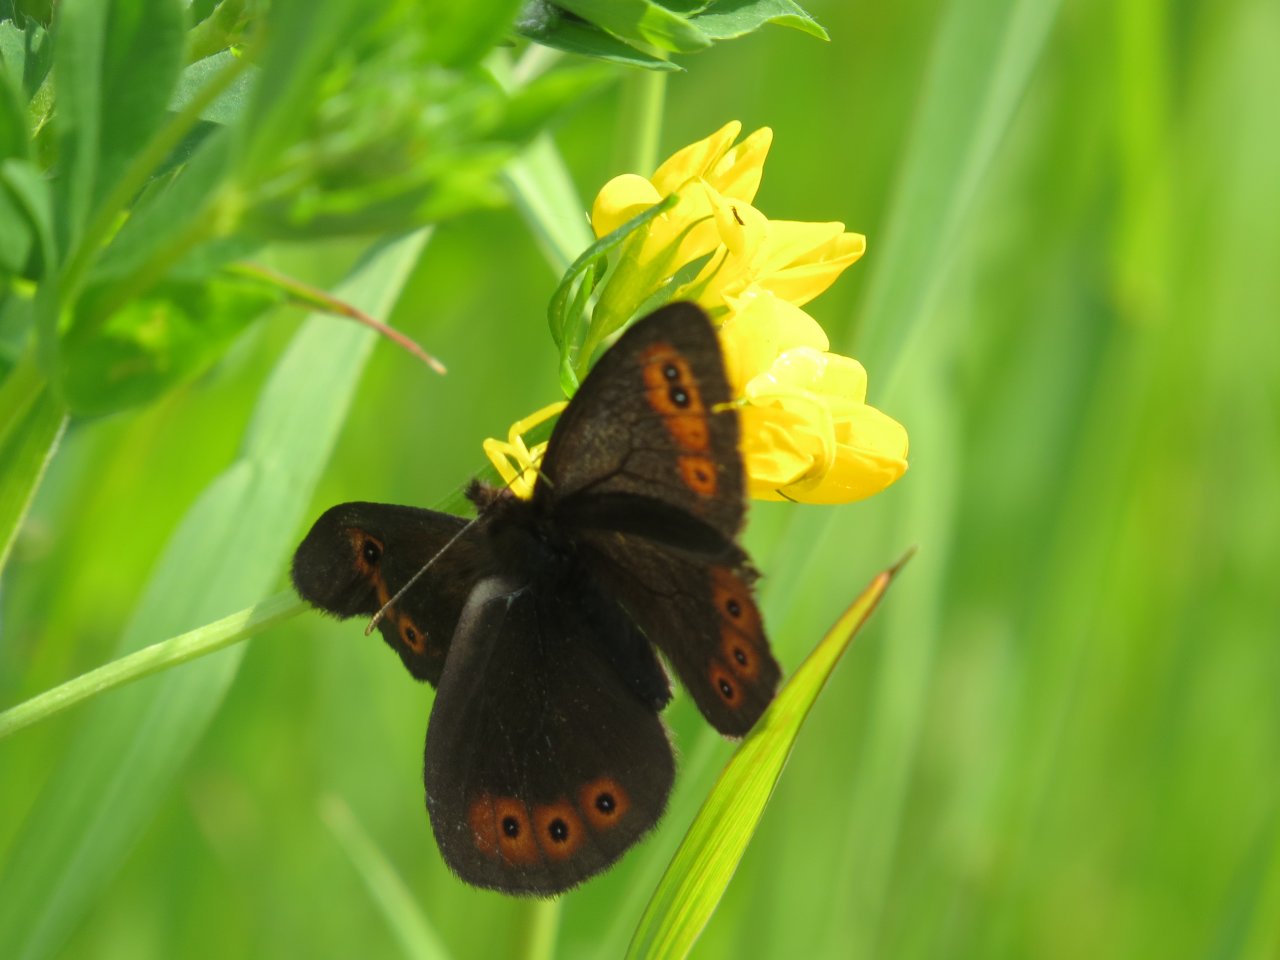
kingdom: Animalia
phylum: Arthropoda
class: Insecta
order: Lepidoptera
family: Nymphalidae
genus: Erebia
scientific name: Erebia epipsodea
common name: Common Alpine
